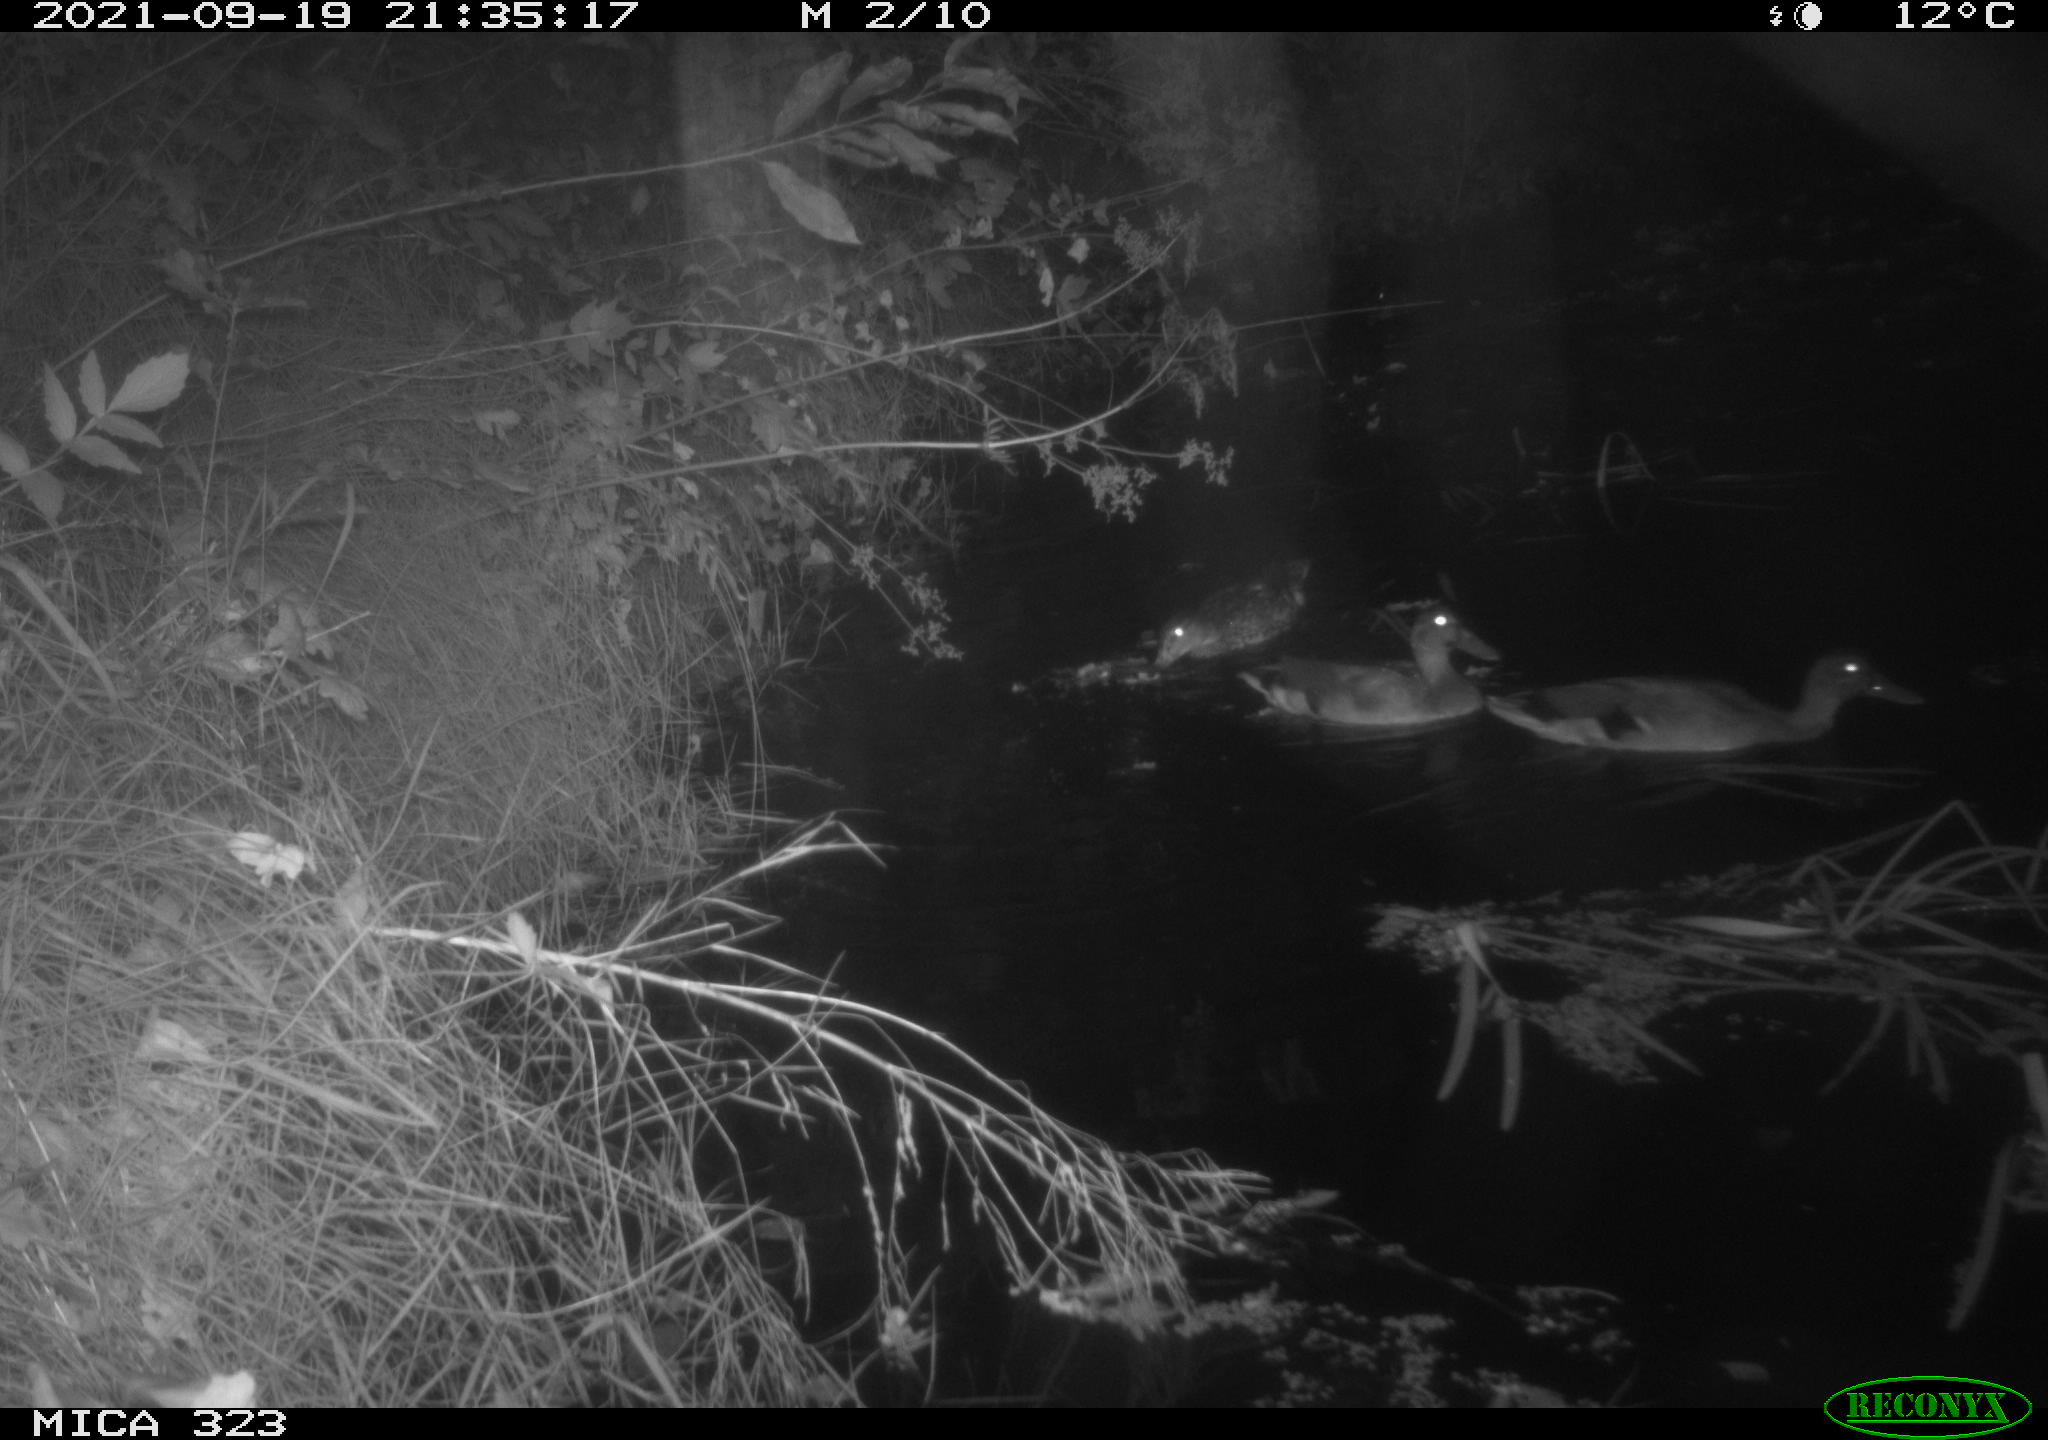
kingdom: Animalia
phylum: Chordata
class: Aves
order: Anseriformes
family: Anatidae
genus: Anas
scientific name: Anas
